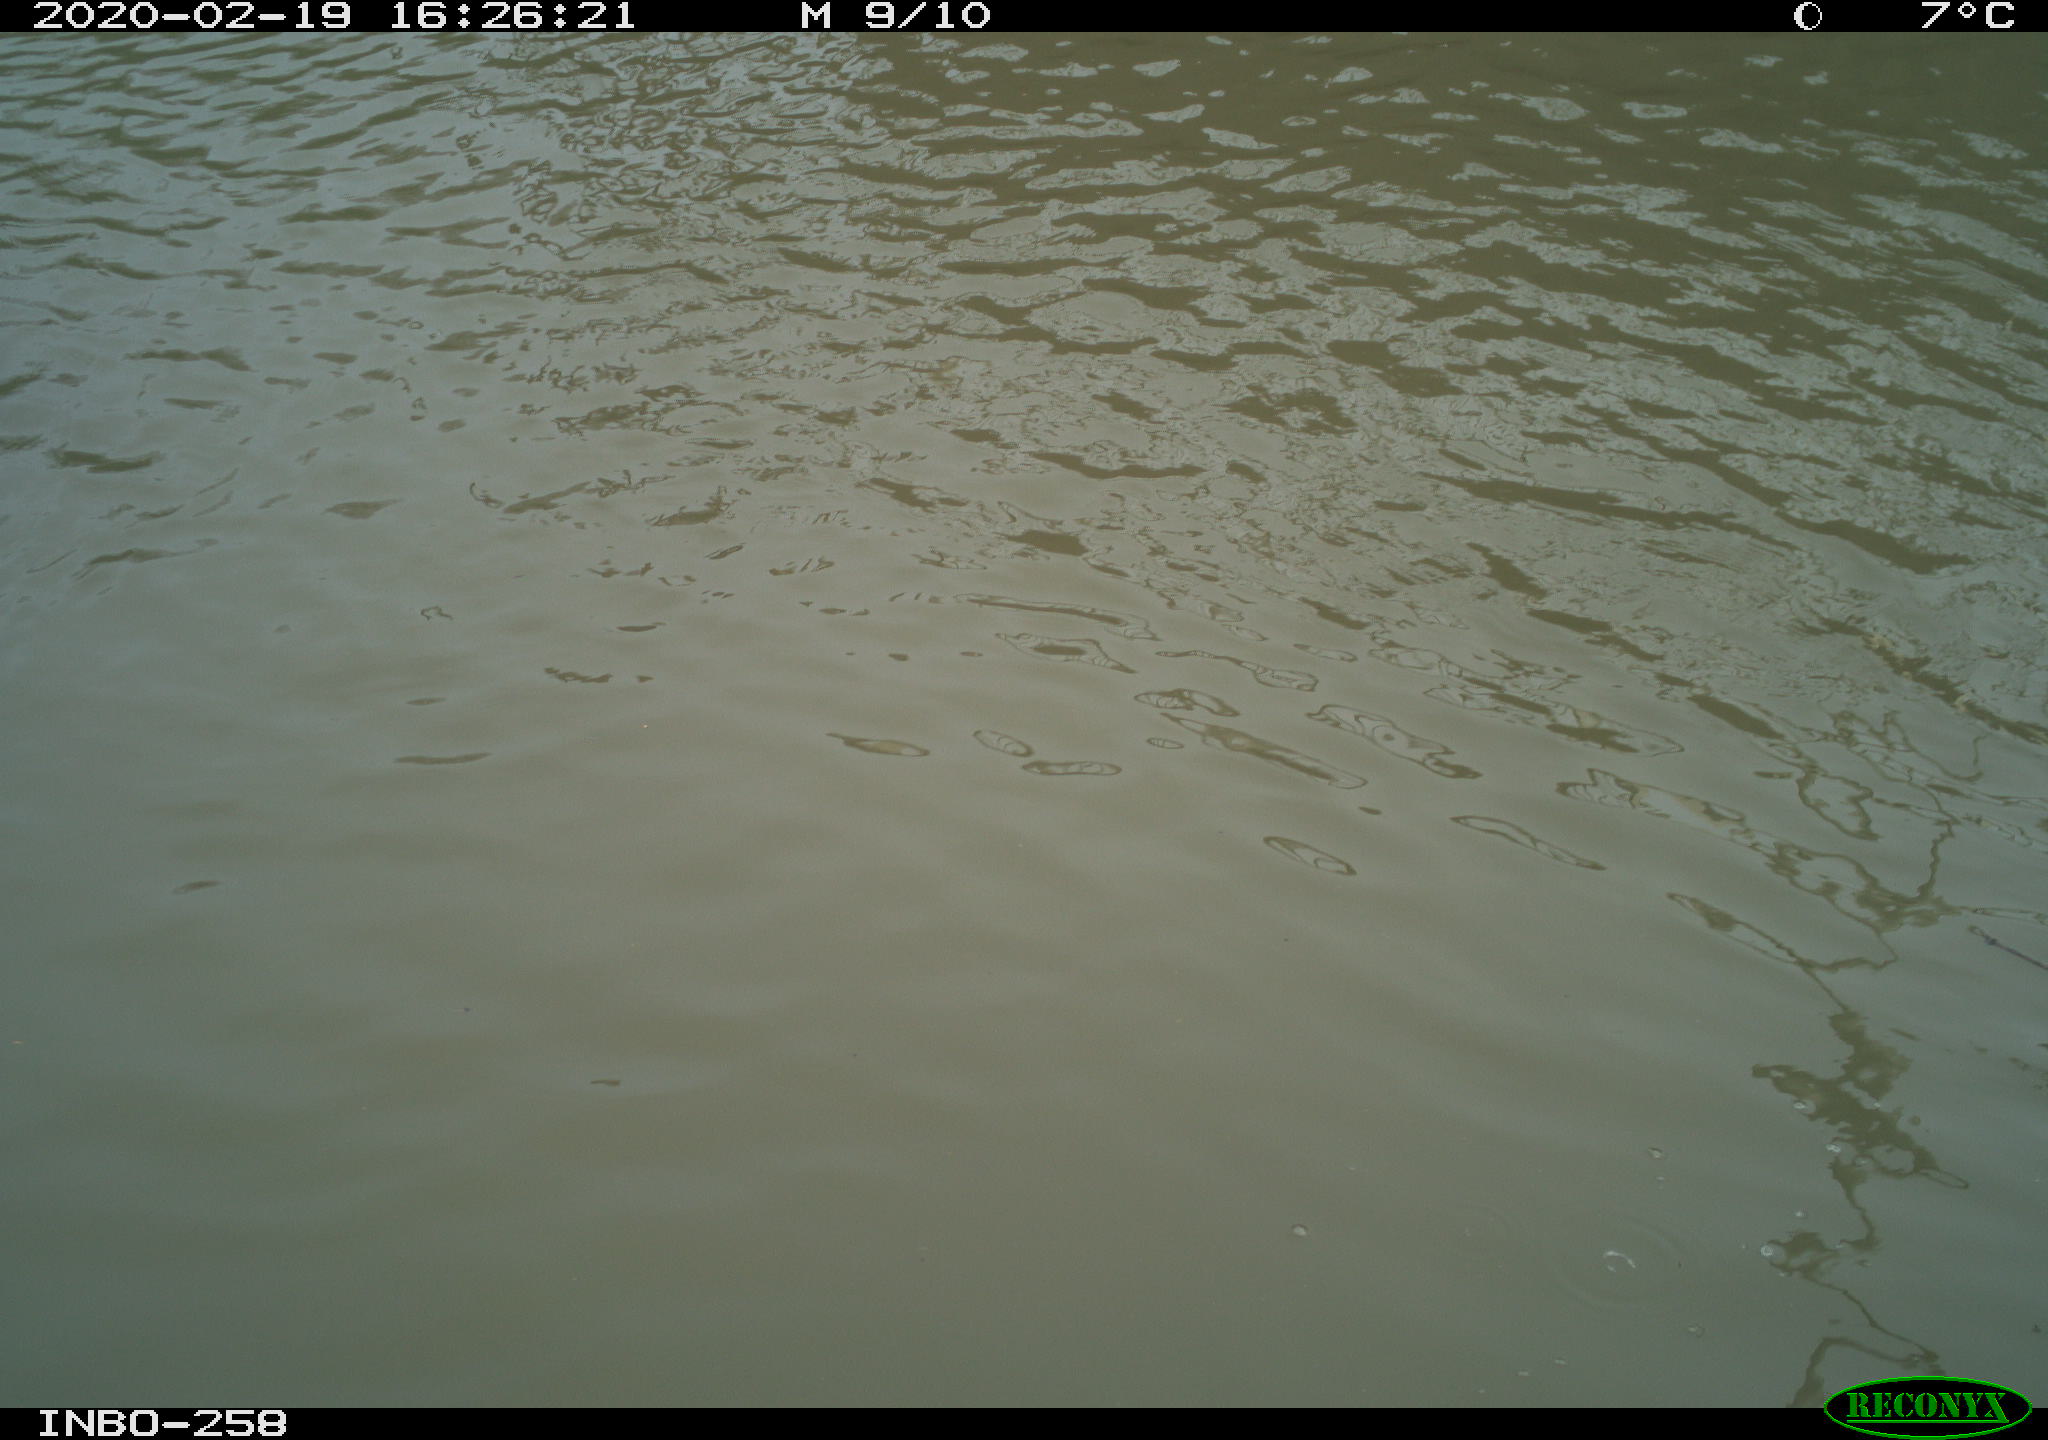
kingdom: Animalia
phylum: Chordata
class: Aves
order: Gruiformes
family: Rallidae
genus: Gallinula
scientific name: Gallinula chloropus
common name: Common moorhen
